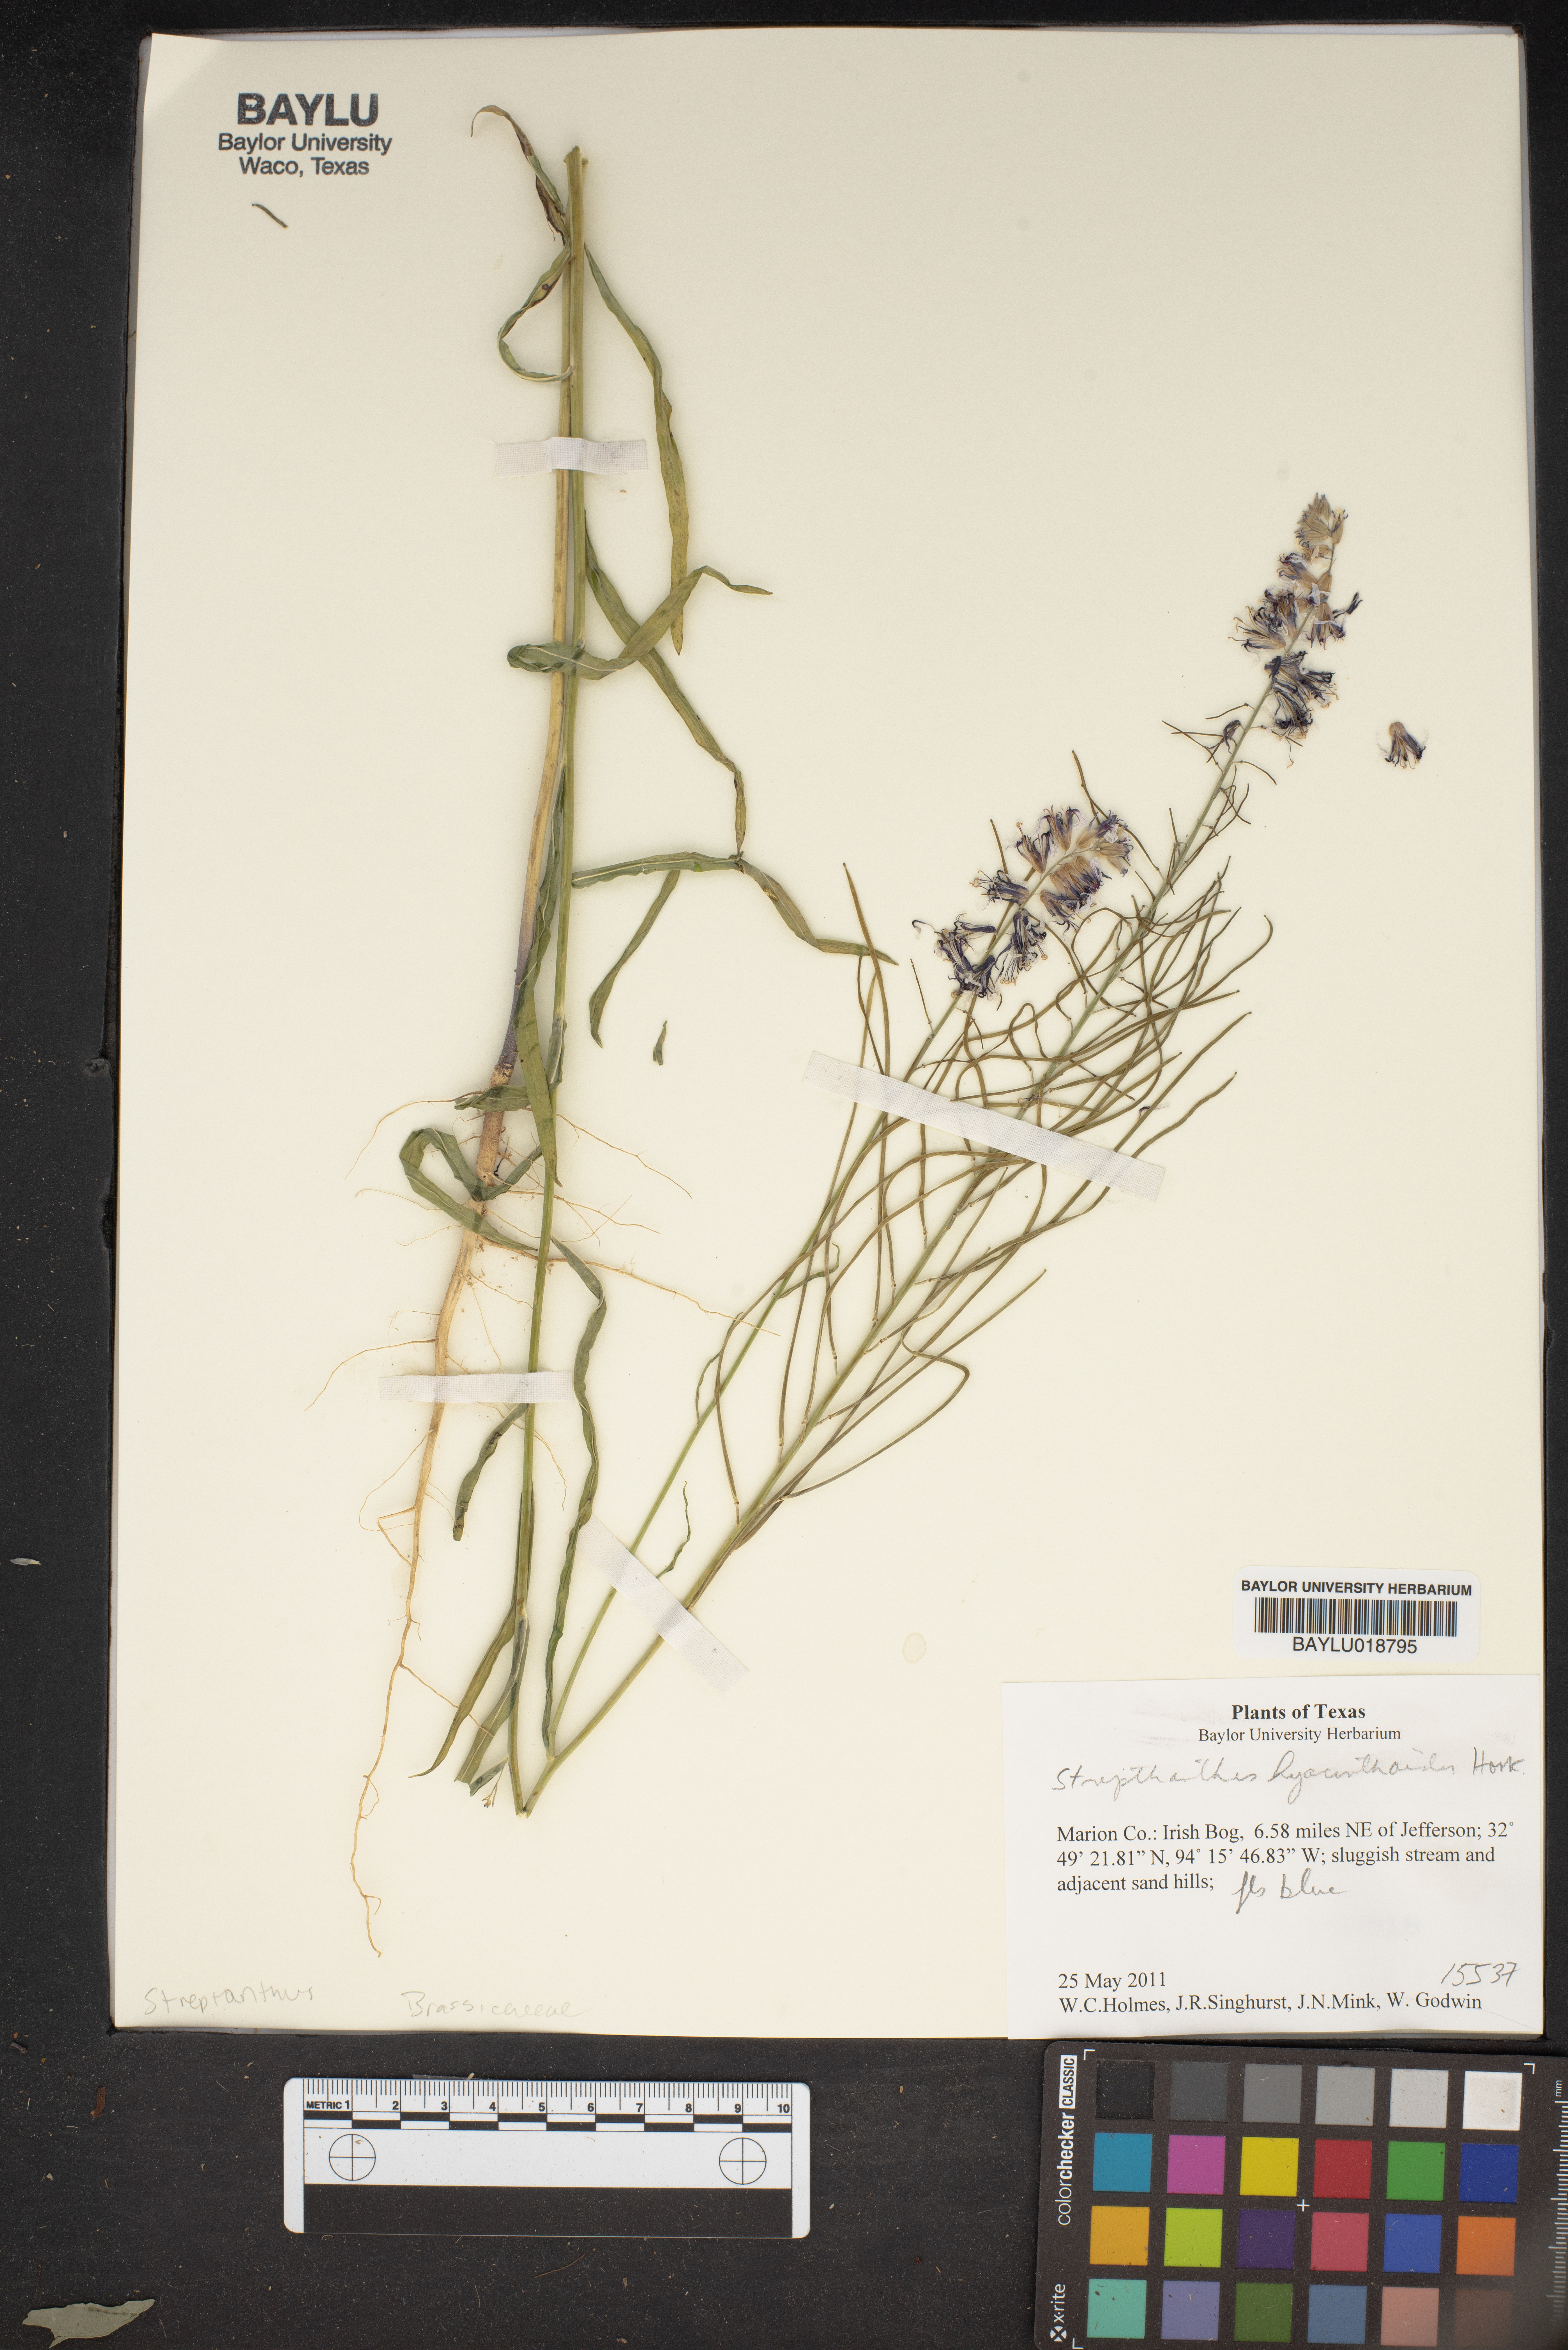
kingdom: Plantae
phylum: Tracheophyta
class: Magnoliopsida
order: Brassicales
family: Brassicaceae
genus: Streptanthus
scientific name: Streptanthus hyacinthoides
